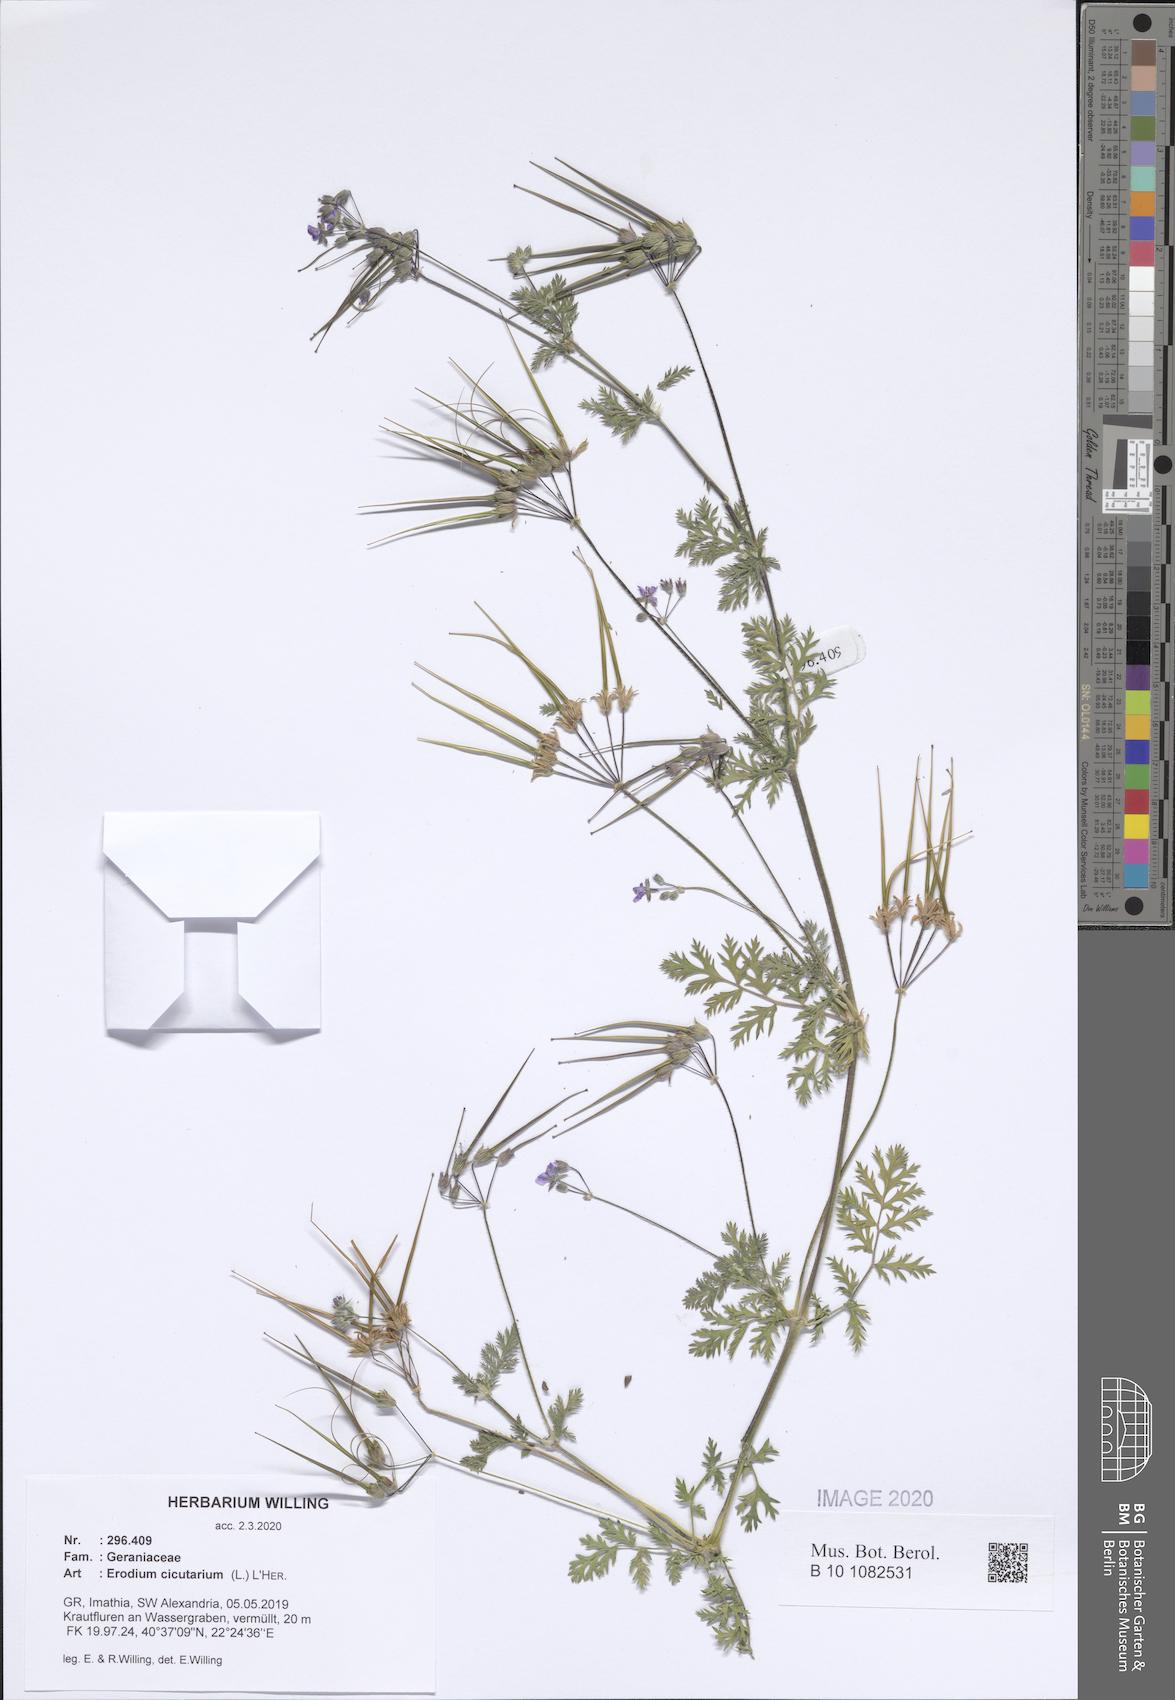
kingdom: Plantae
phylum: Tracheophyta
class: Magnoliopsida
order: Geraniales
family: Geraniaceae
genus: Erodium
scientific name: Erodium cicutarium
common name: Common stork's-bill
